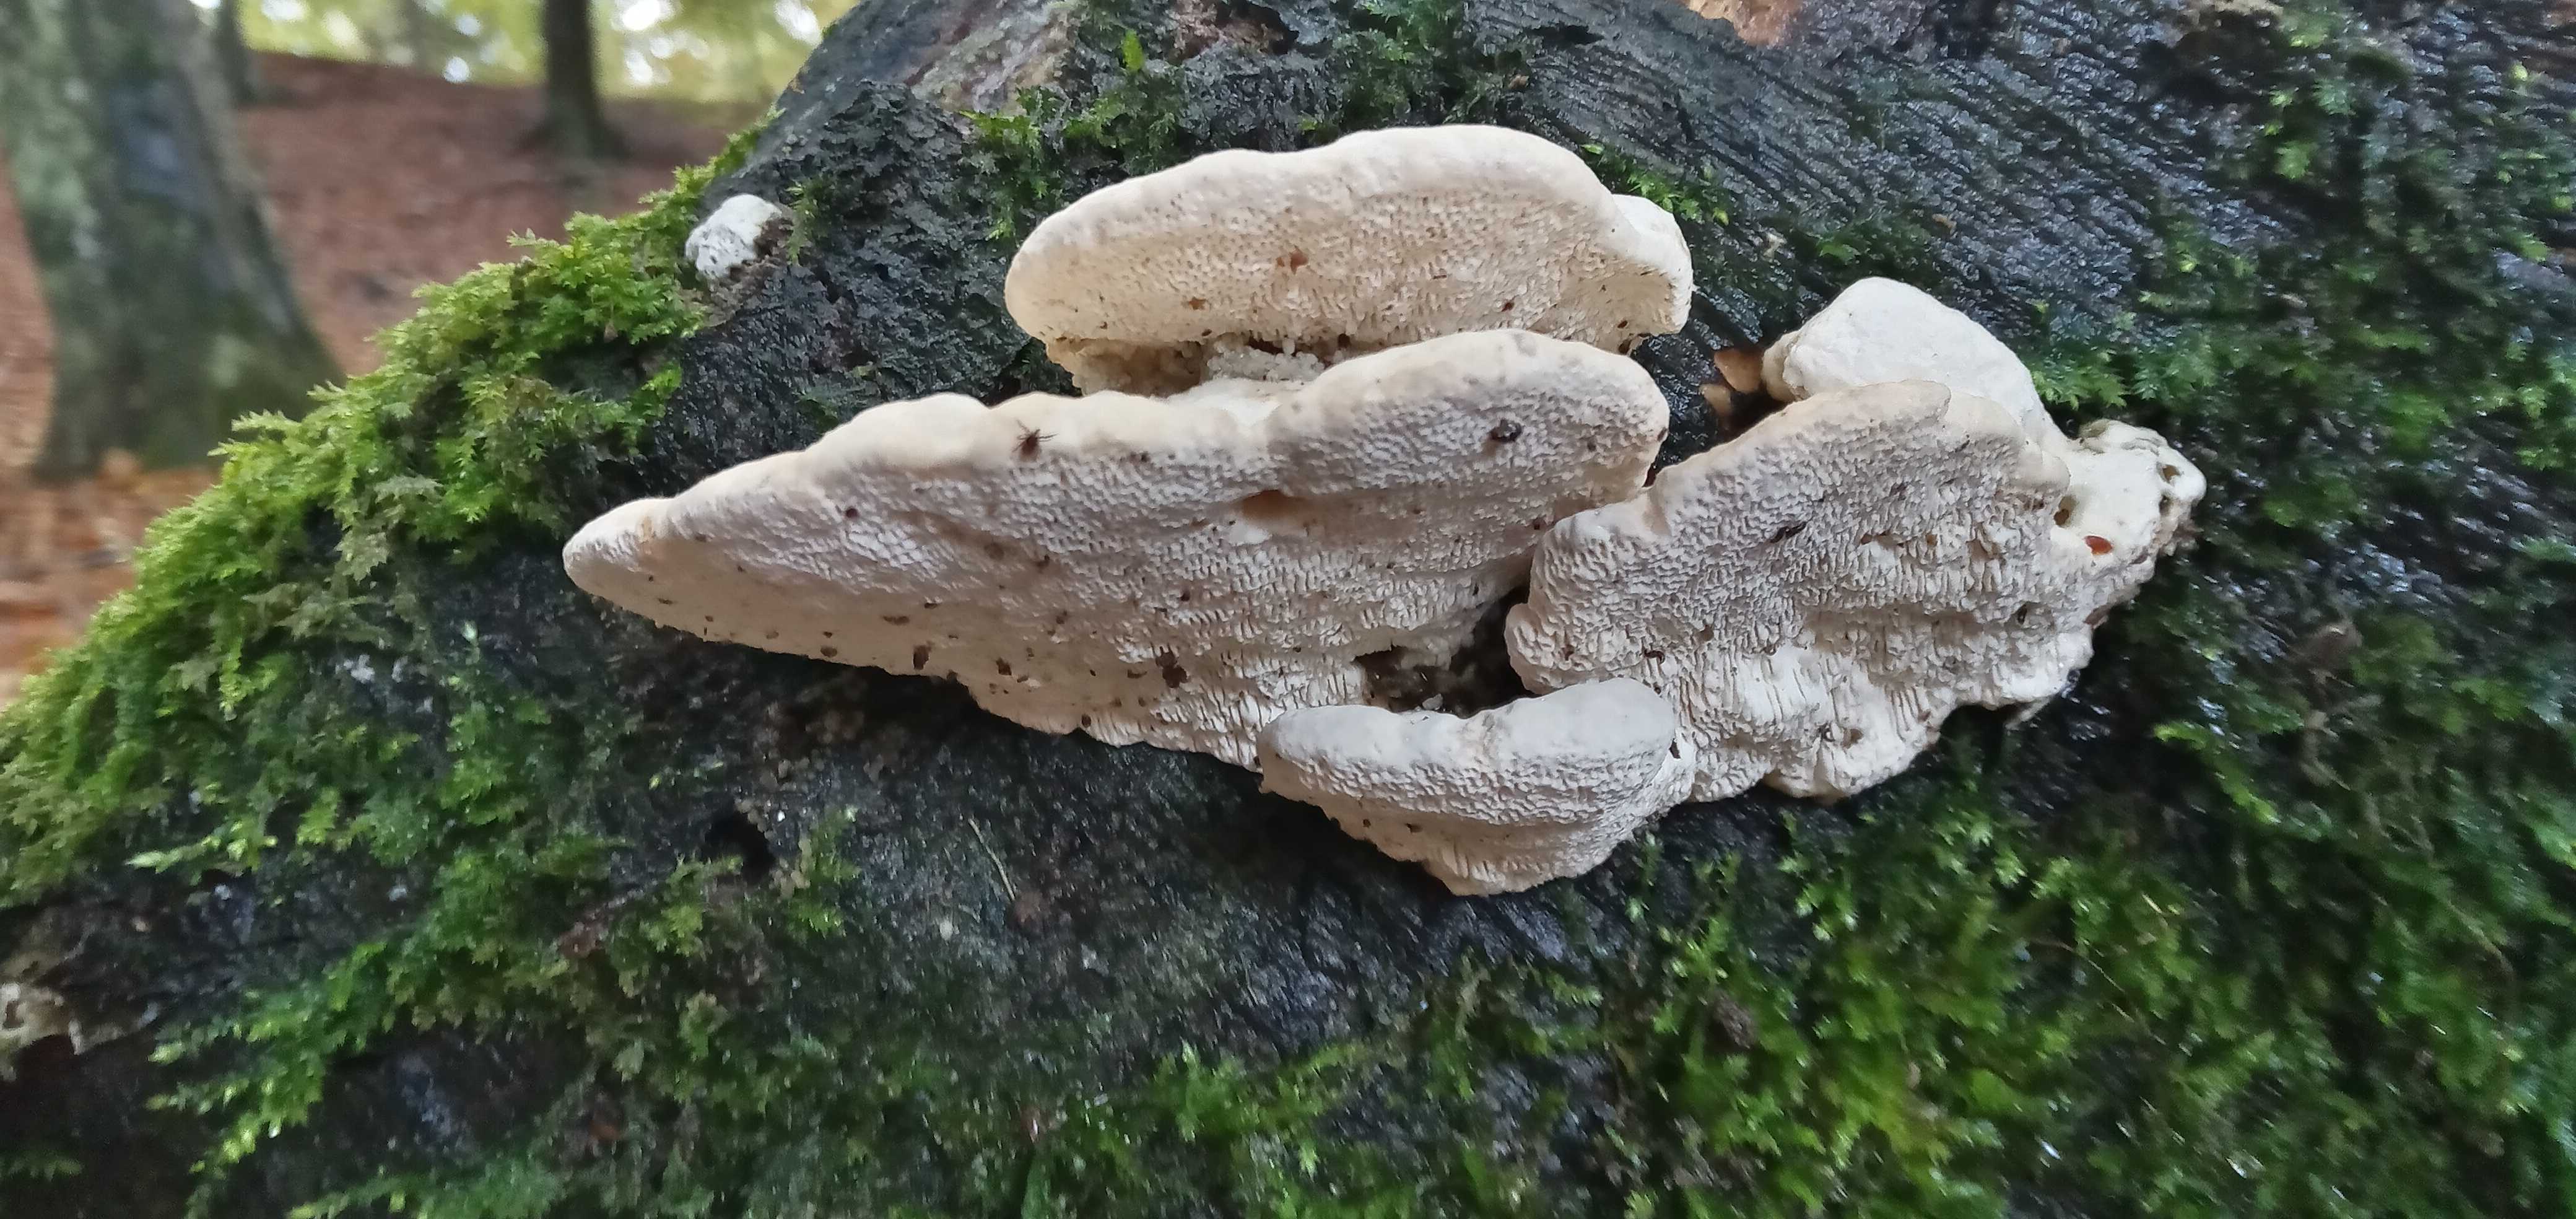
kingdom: Fungi
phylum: Basidiomycota
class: Agaricomycetes
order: Polyporales
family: Polyporaceae
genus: Trametes
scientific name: Trametes gibbosa
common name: puklet læderporesvamp
